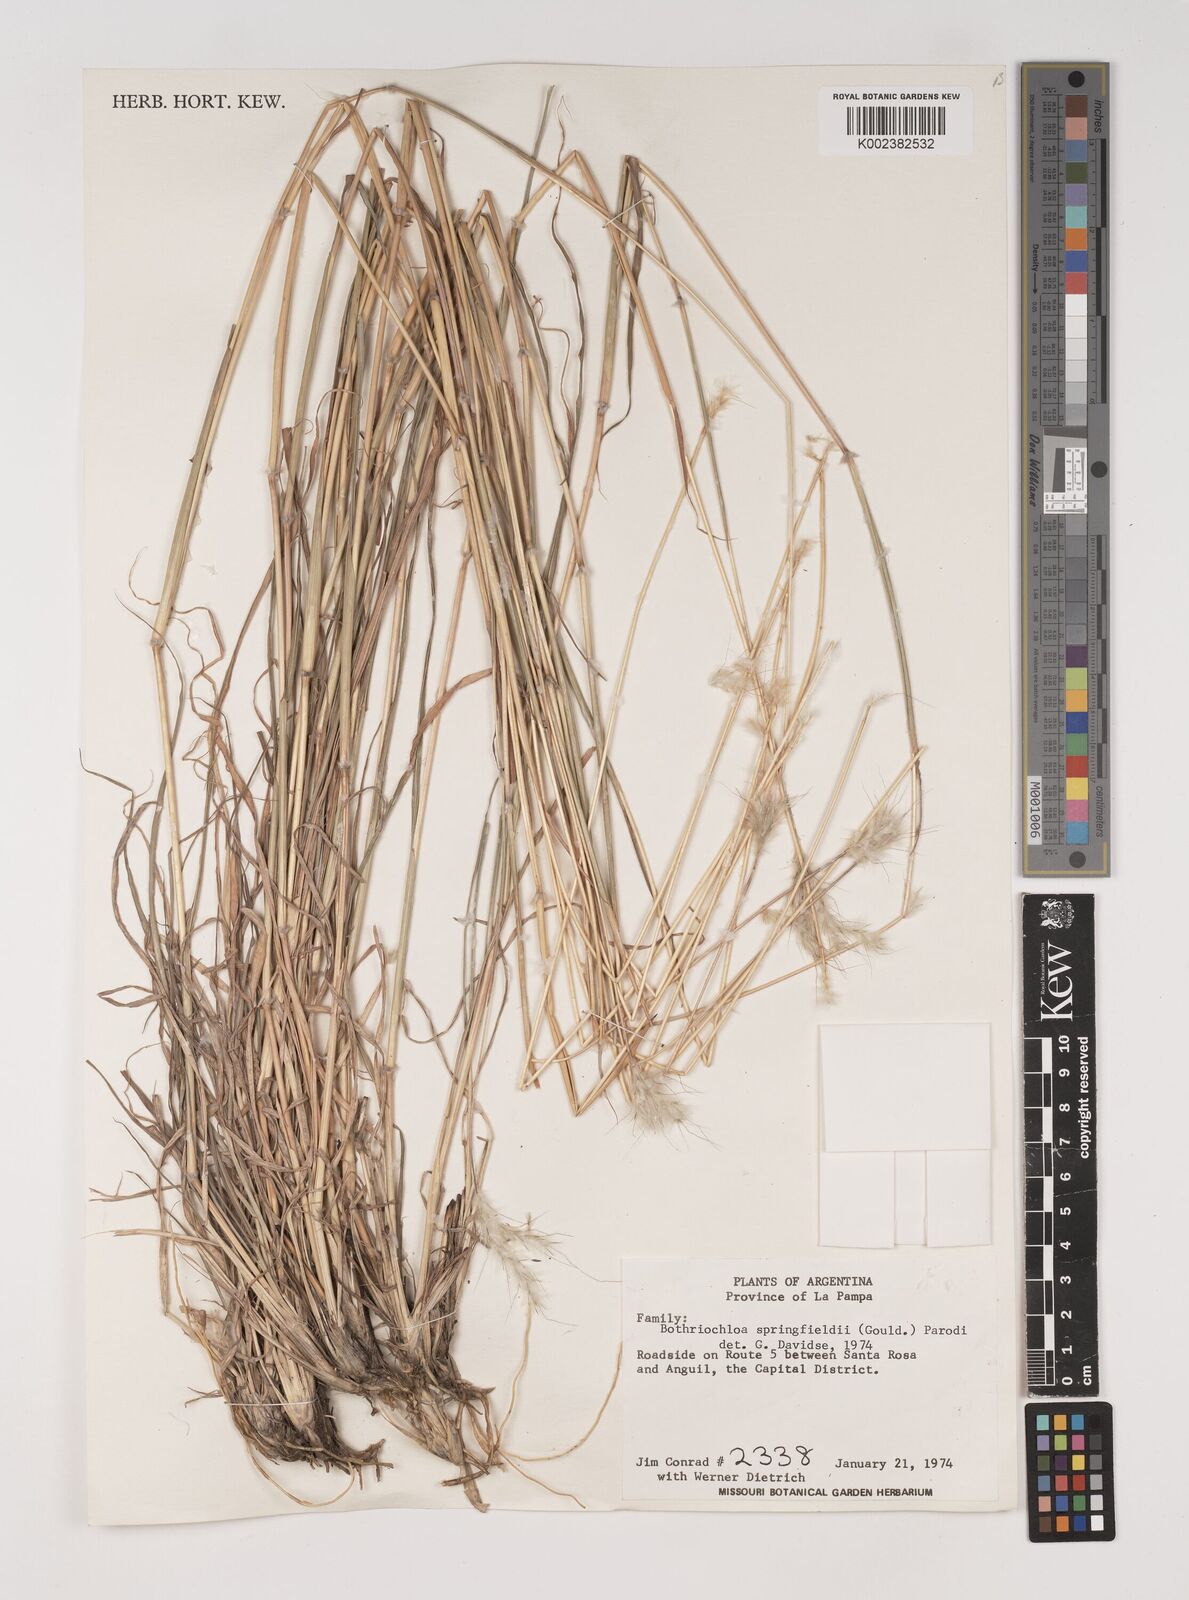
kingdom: Plantae
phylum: Tracheophyta
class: Liliopsida
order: Poales
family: Poaceae
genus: Bothriochloa
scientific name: Bothriochloa springfieldii
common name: Springfield bluestem
